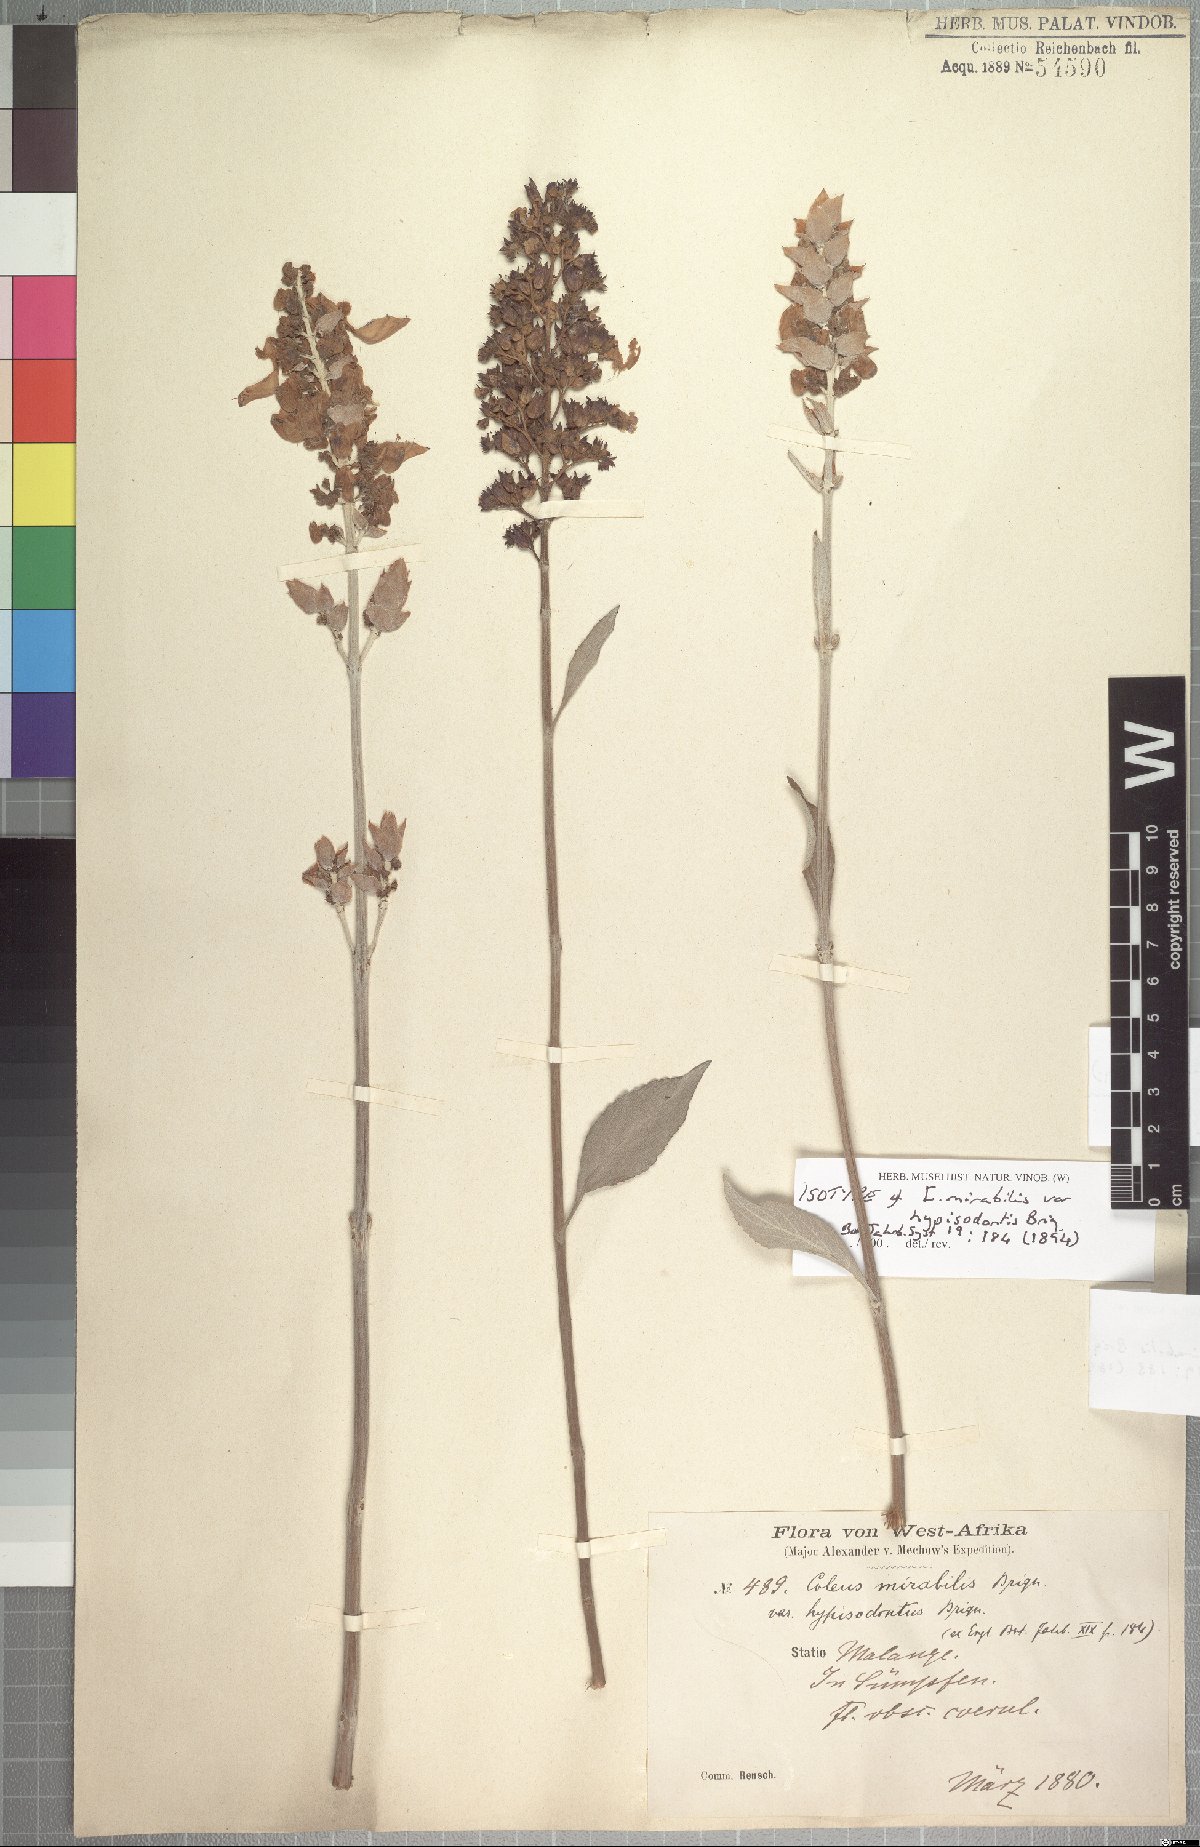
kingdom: Plantae
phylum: Tracheophyta
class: Magnoliopsida
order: Lamiales
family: Lamiaceae
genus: Coleus
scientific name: Coleus mirabilis
